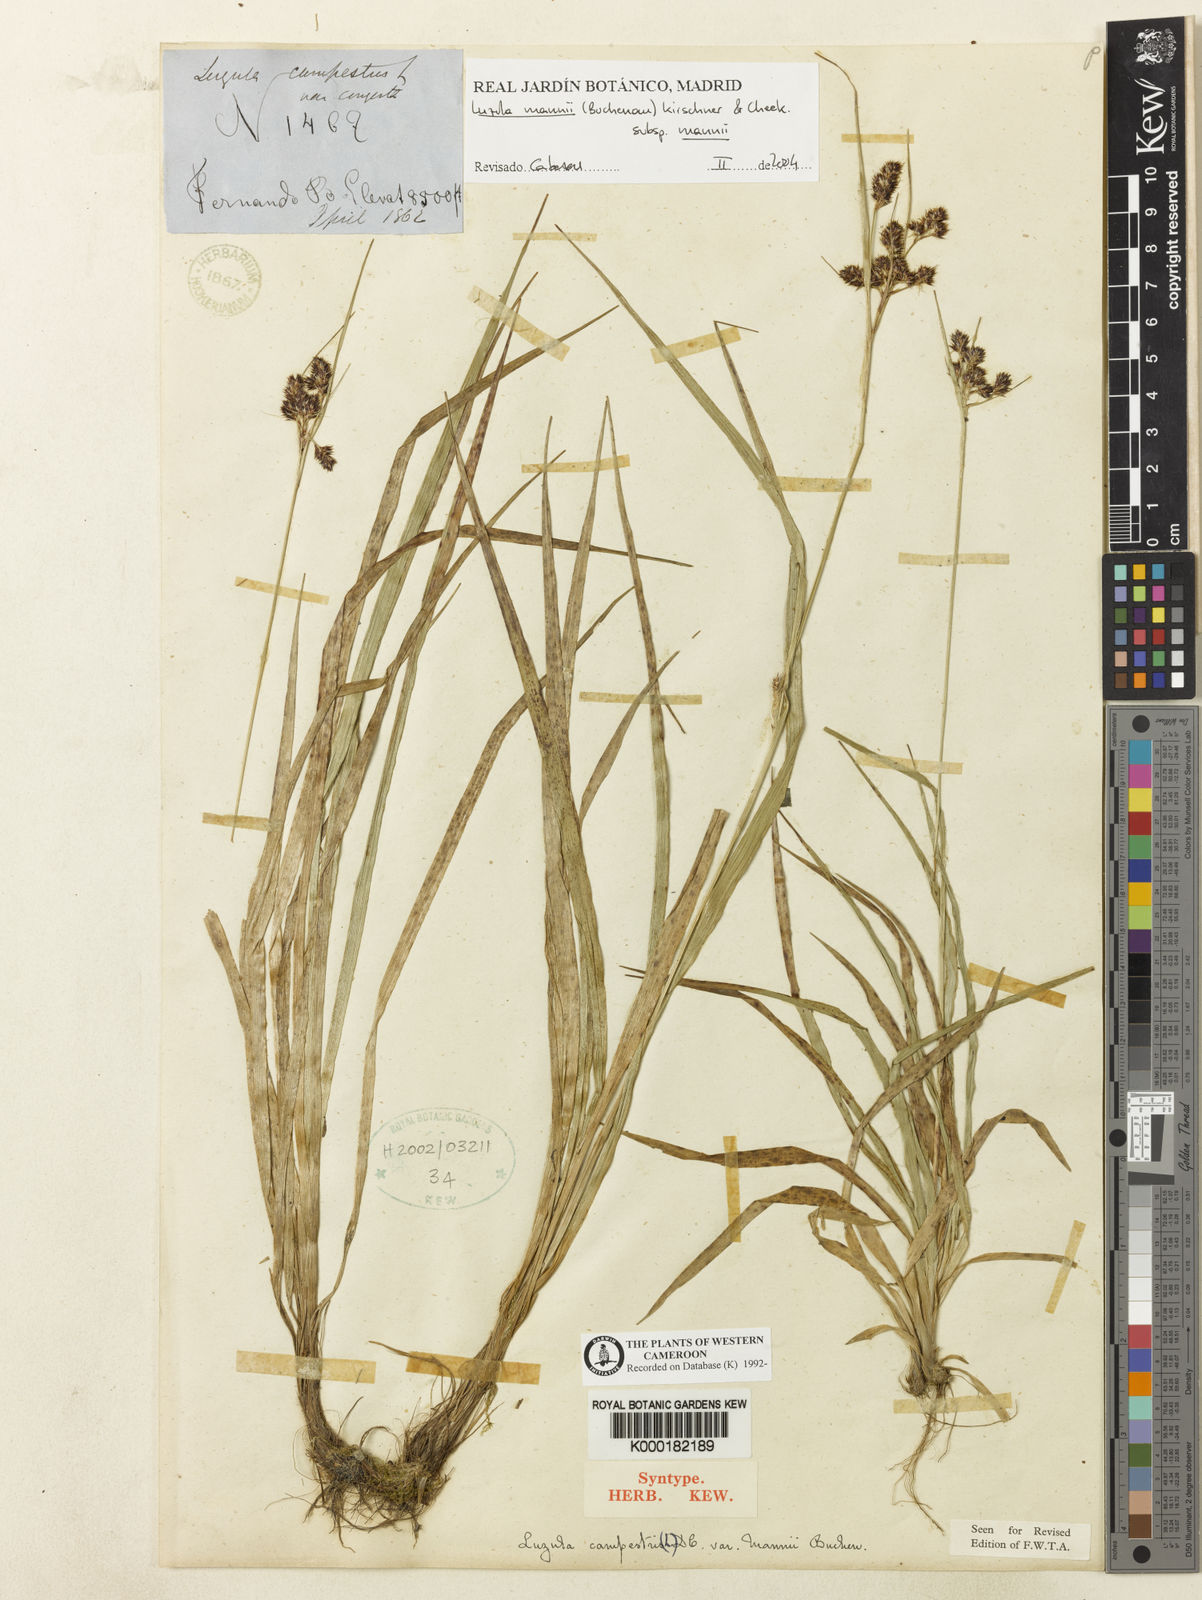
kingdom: Plantae
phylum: Tracheophyta
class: Liliopsida
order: Poales
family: Juncaceae
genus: Luzula
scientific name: Luzula campestris
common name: Field wood-rush
